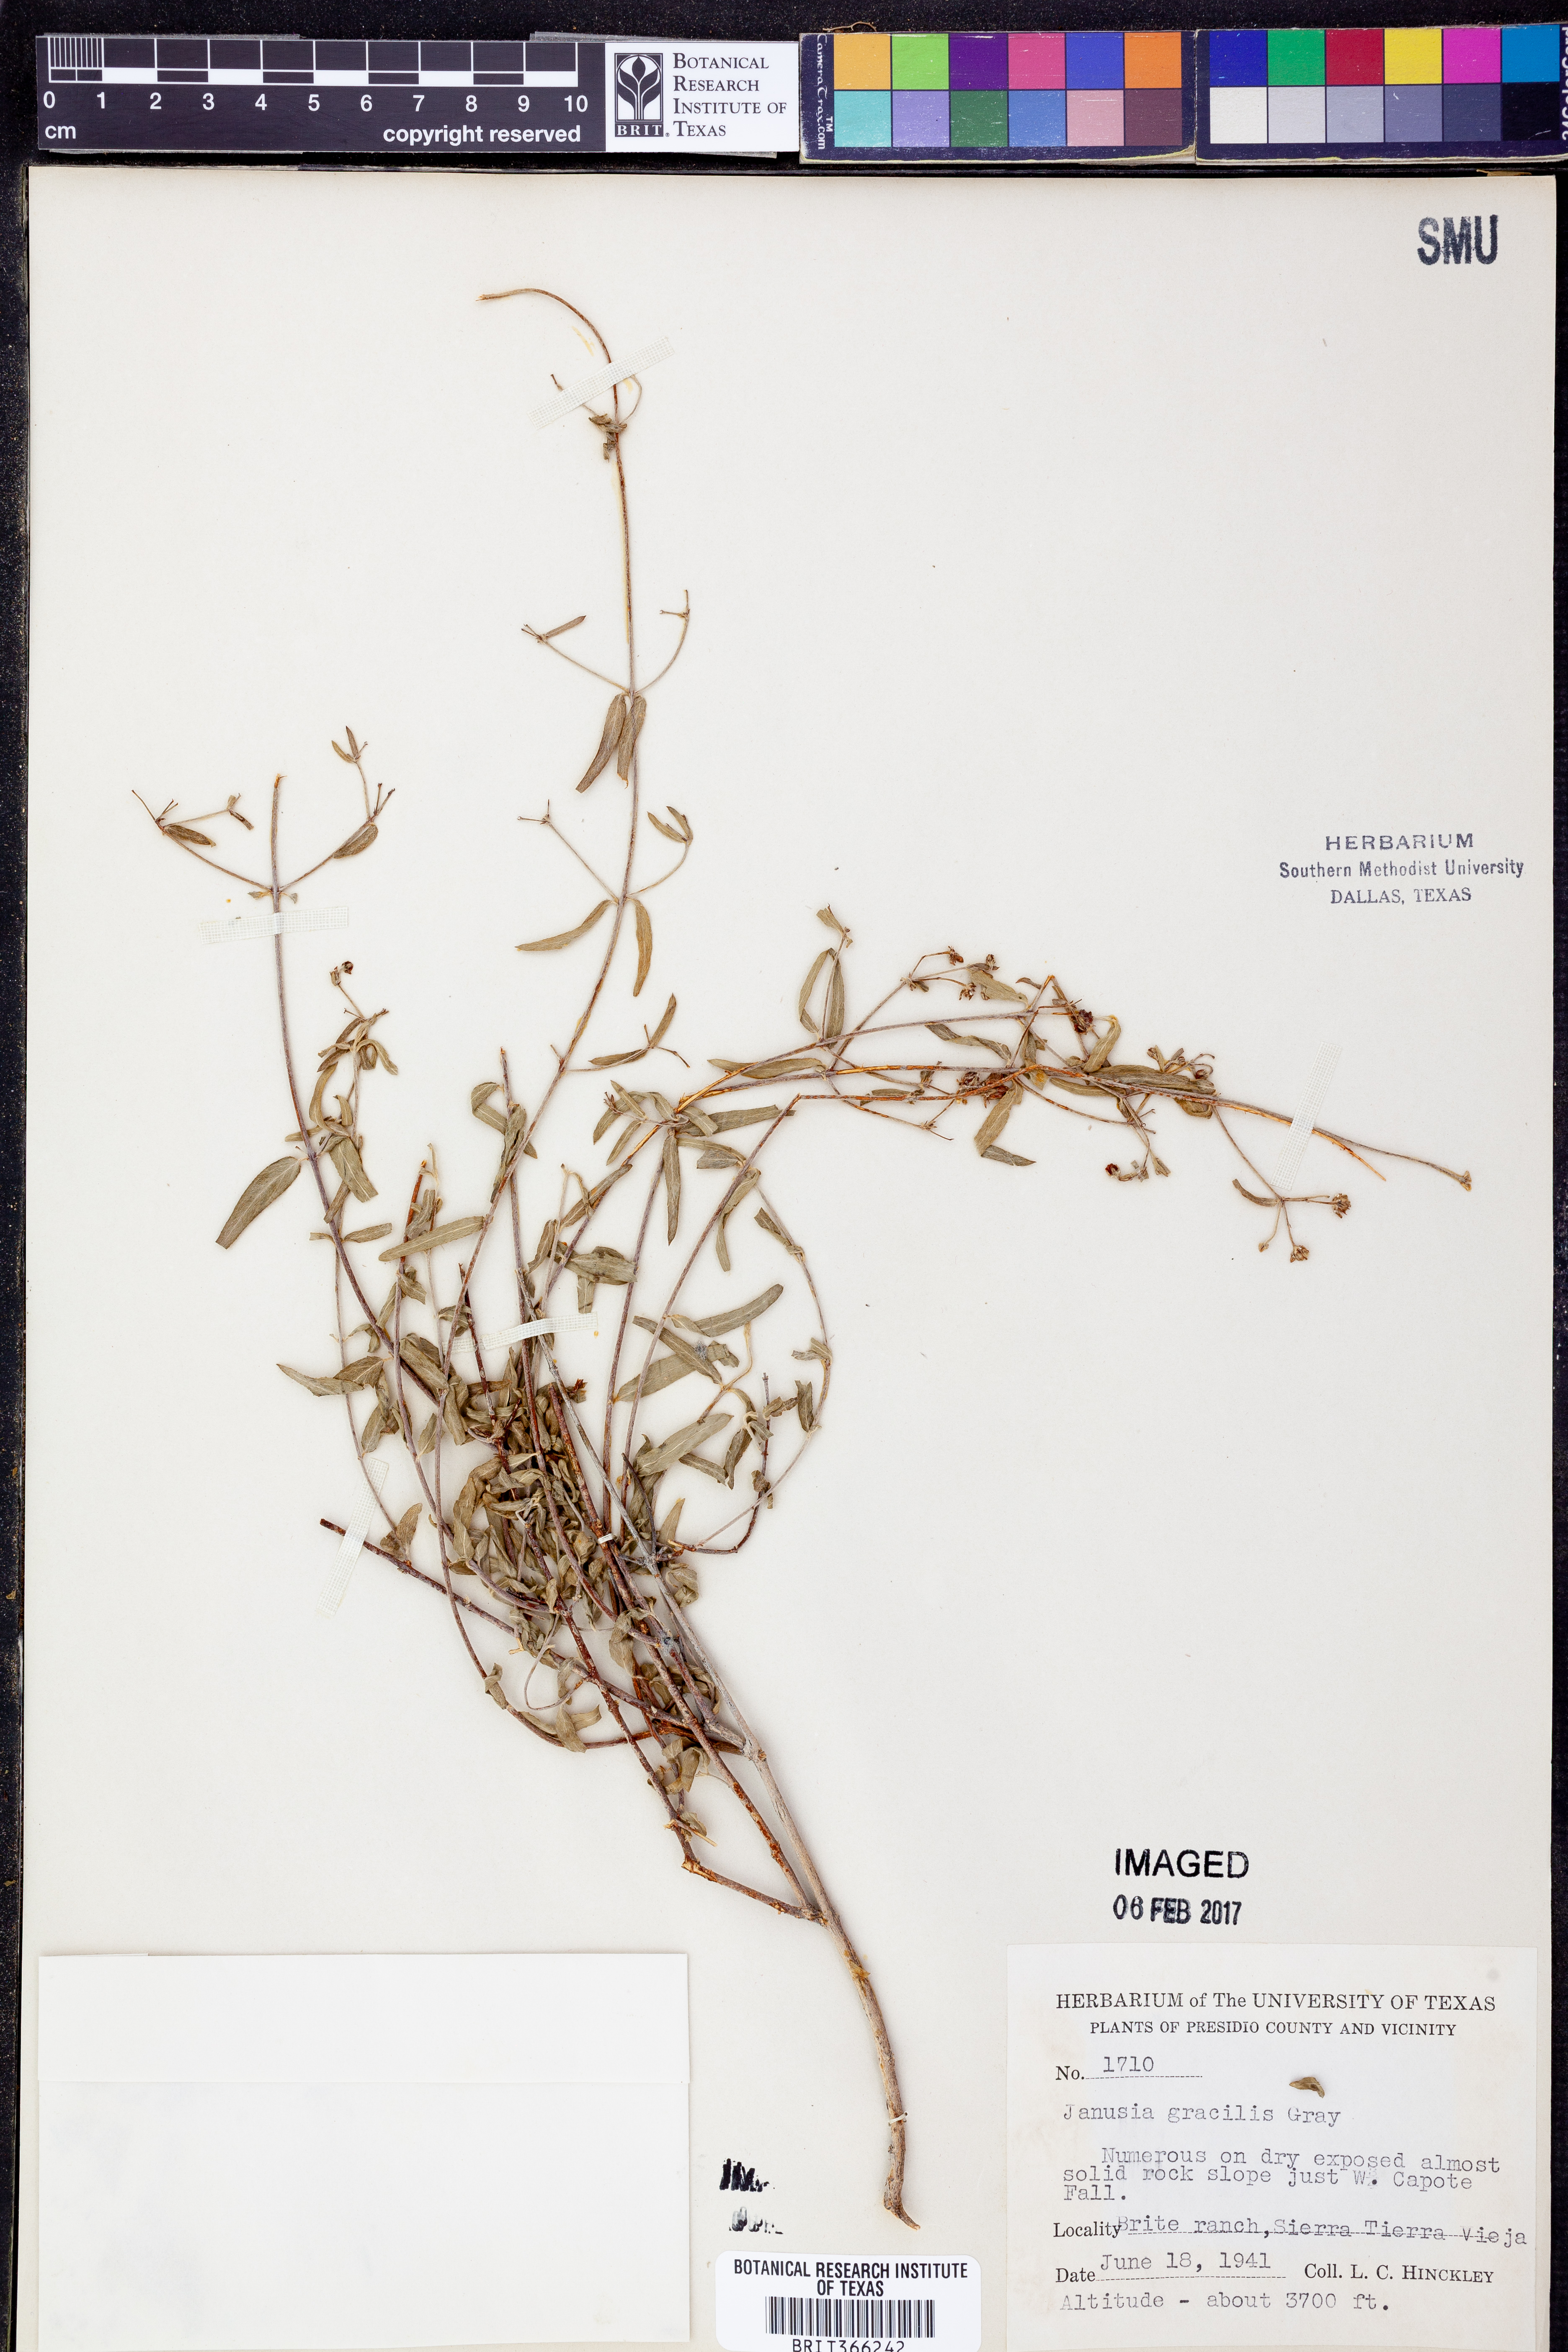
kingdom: Plantae
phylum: Tracheophyta
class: Magnoliopsida
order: Malpighiales
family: Malpighiaceae
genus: Cottsia
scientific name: Cottsia gracilis
